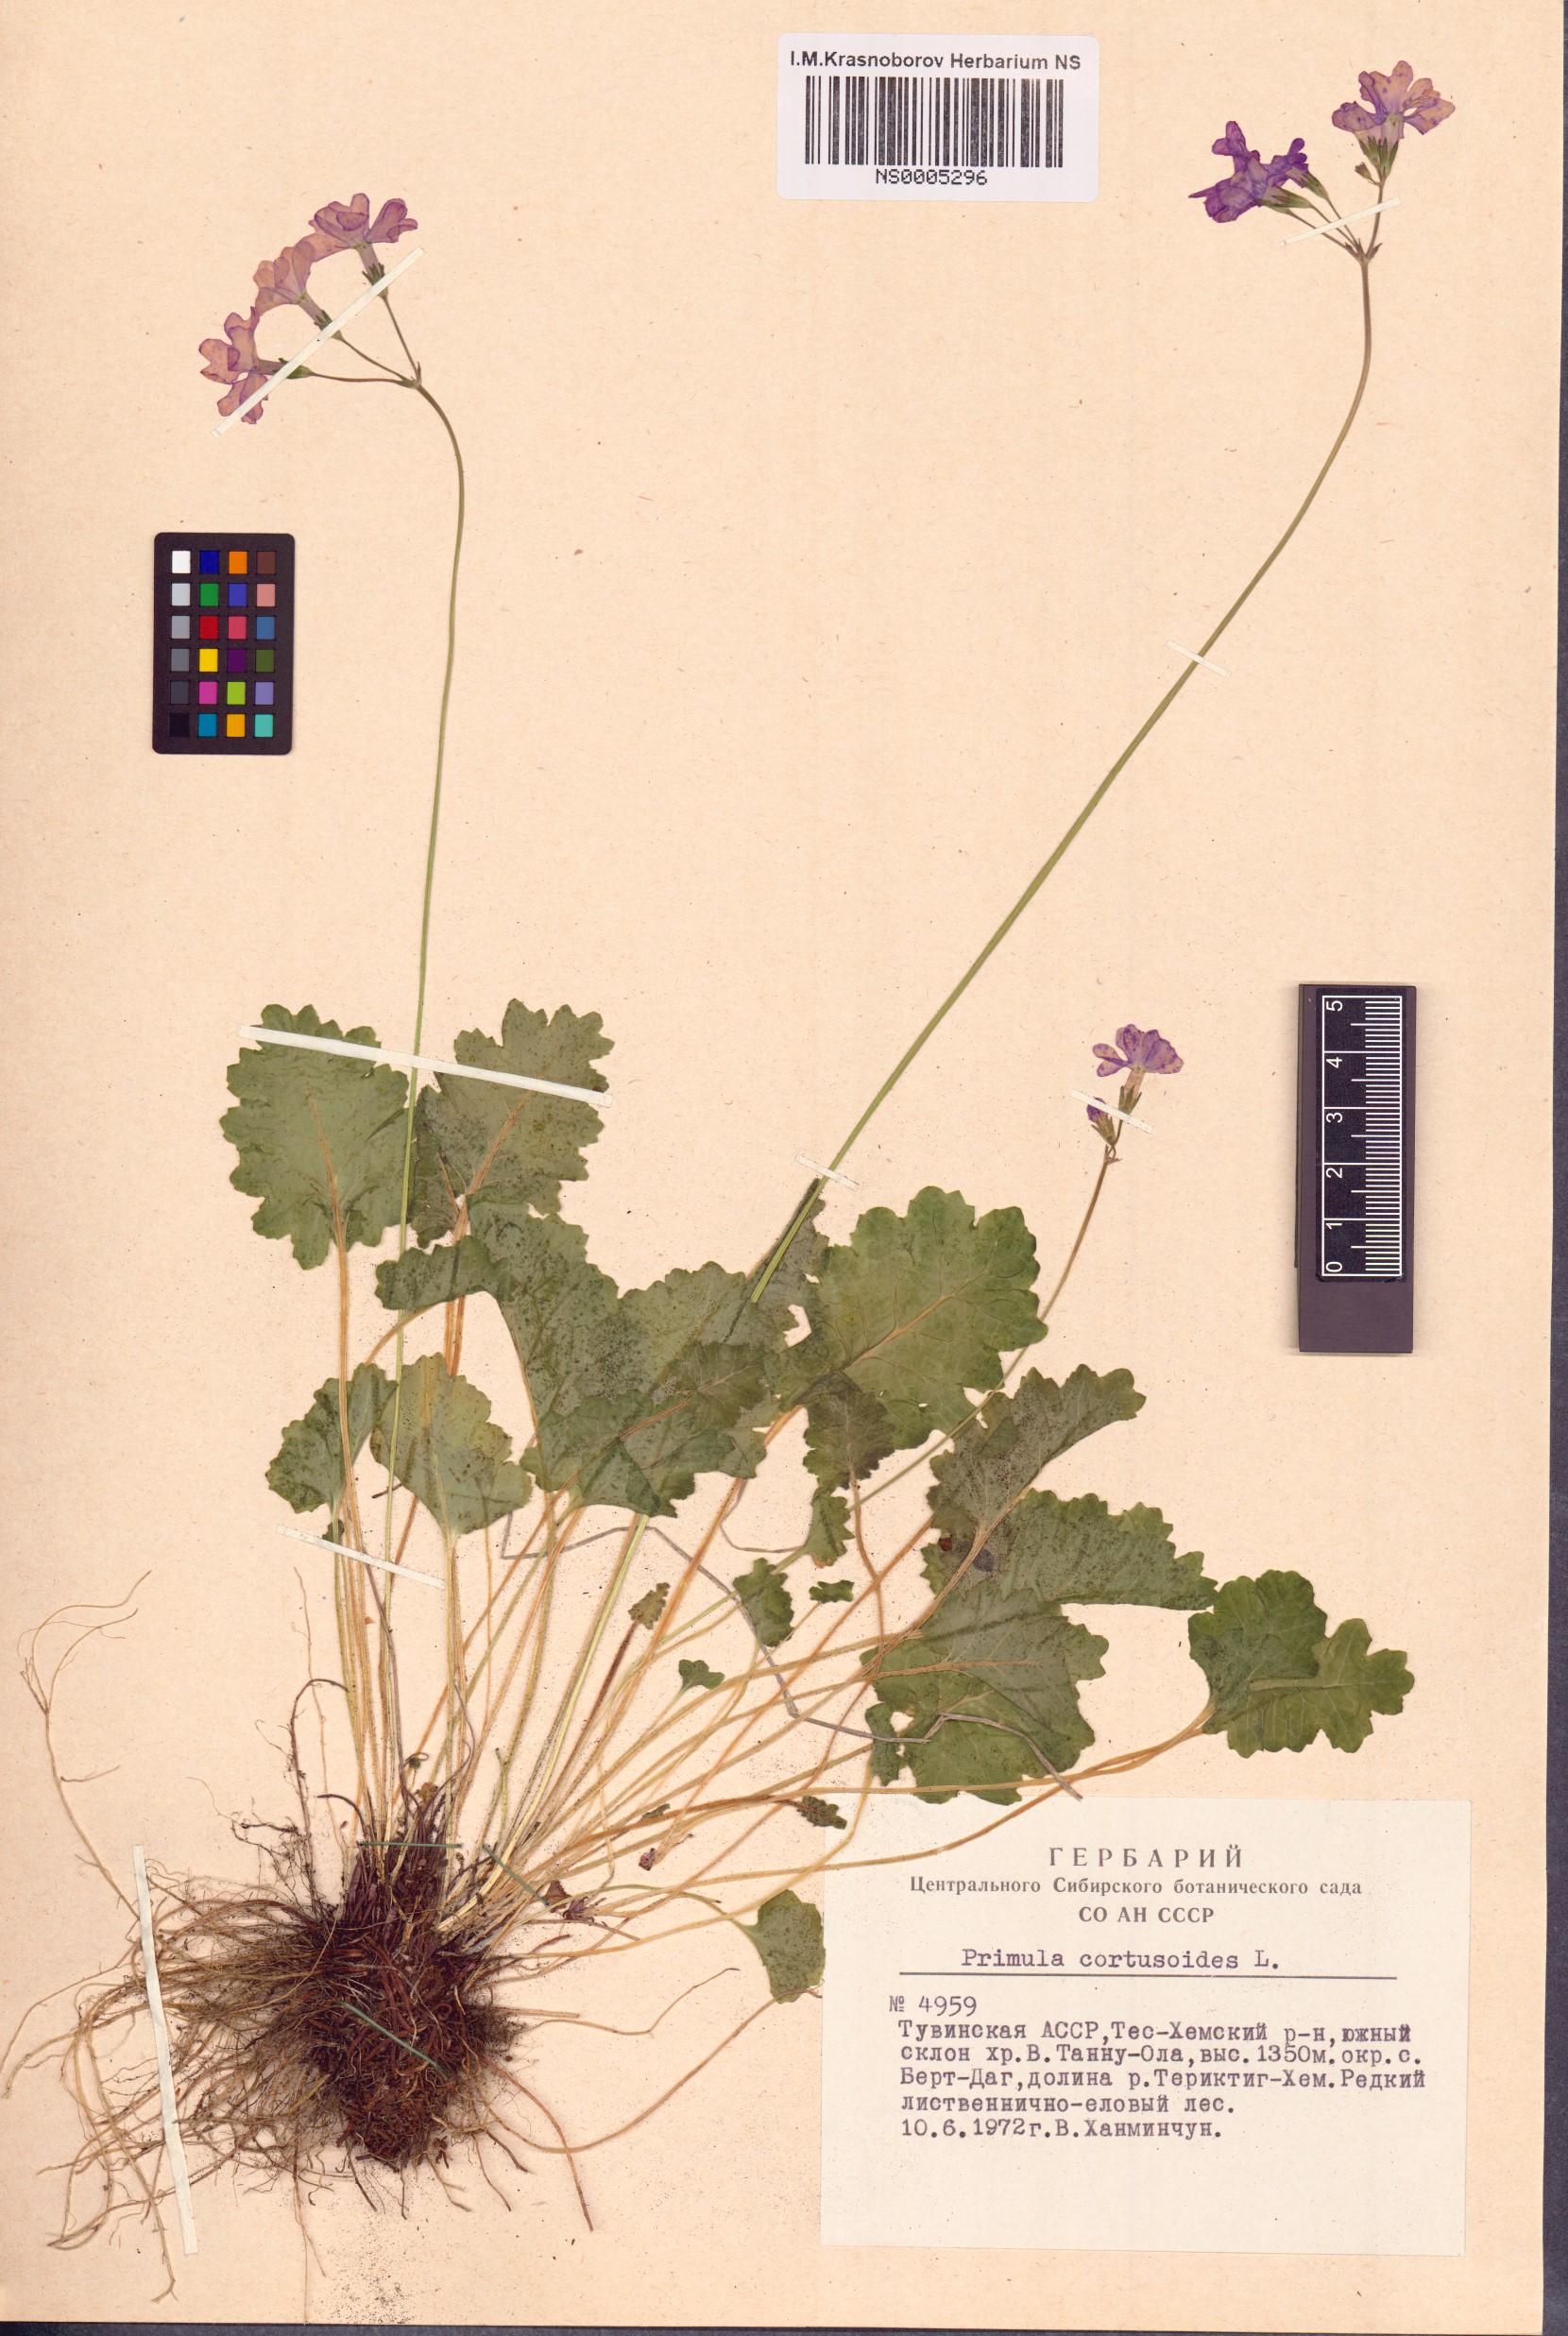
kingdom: Plantae
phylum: Tracheophyta
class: Magnoliopsida
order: Ericales
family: Primulaceae
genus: Primula
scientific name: Primula cortusoides
